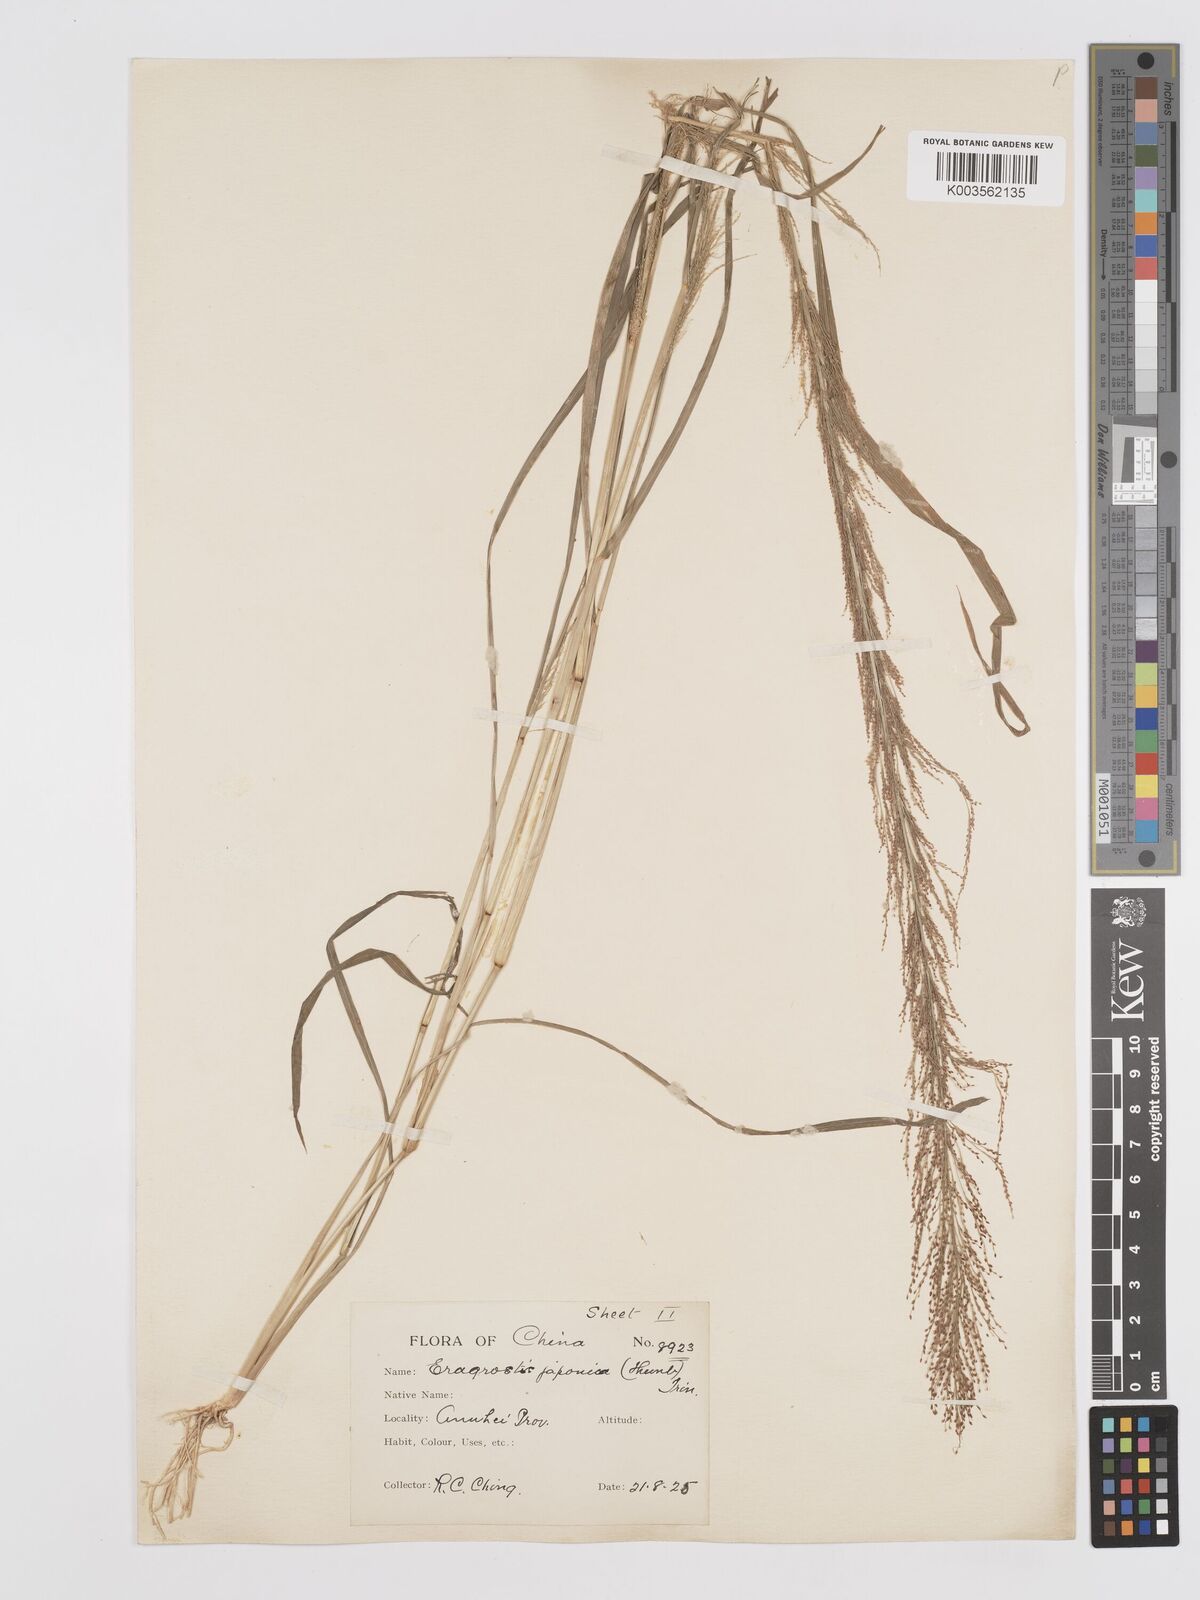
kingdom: Plantae
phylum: Tracheophyta
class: Liliopsida
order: Poales
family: Poaceae
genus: Eragrostis
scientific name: Eragrostis japonica
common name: Pond lovegrass
